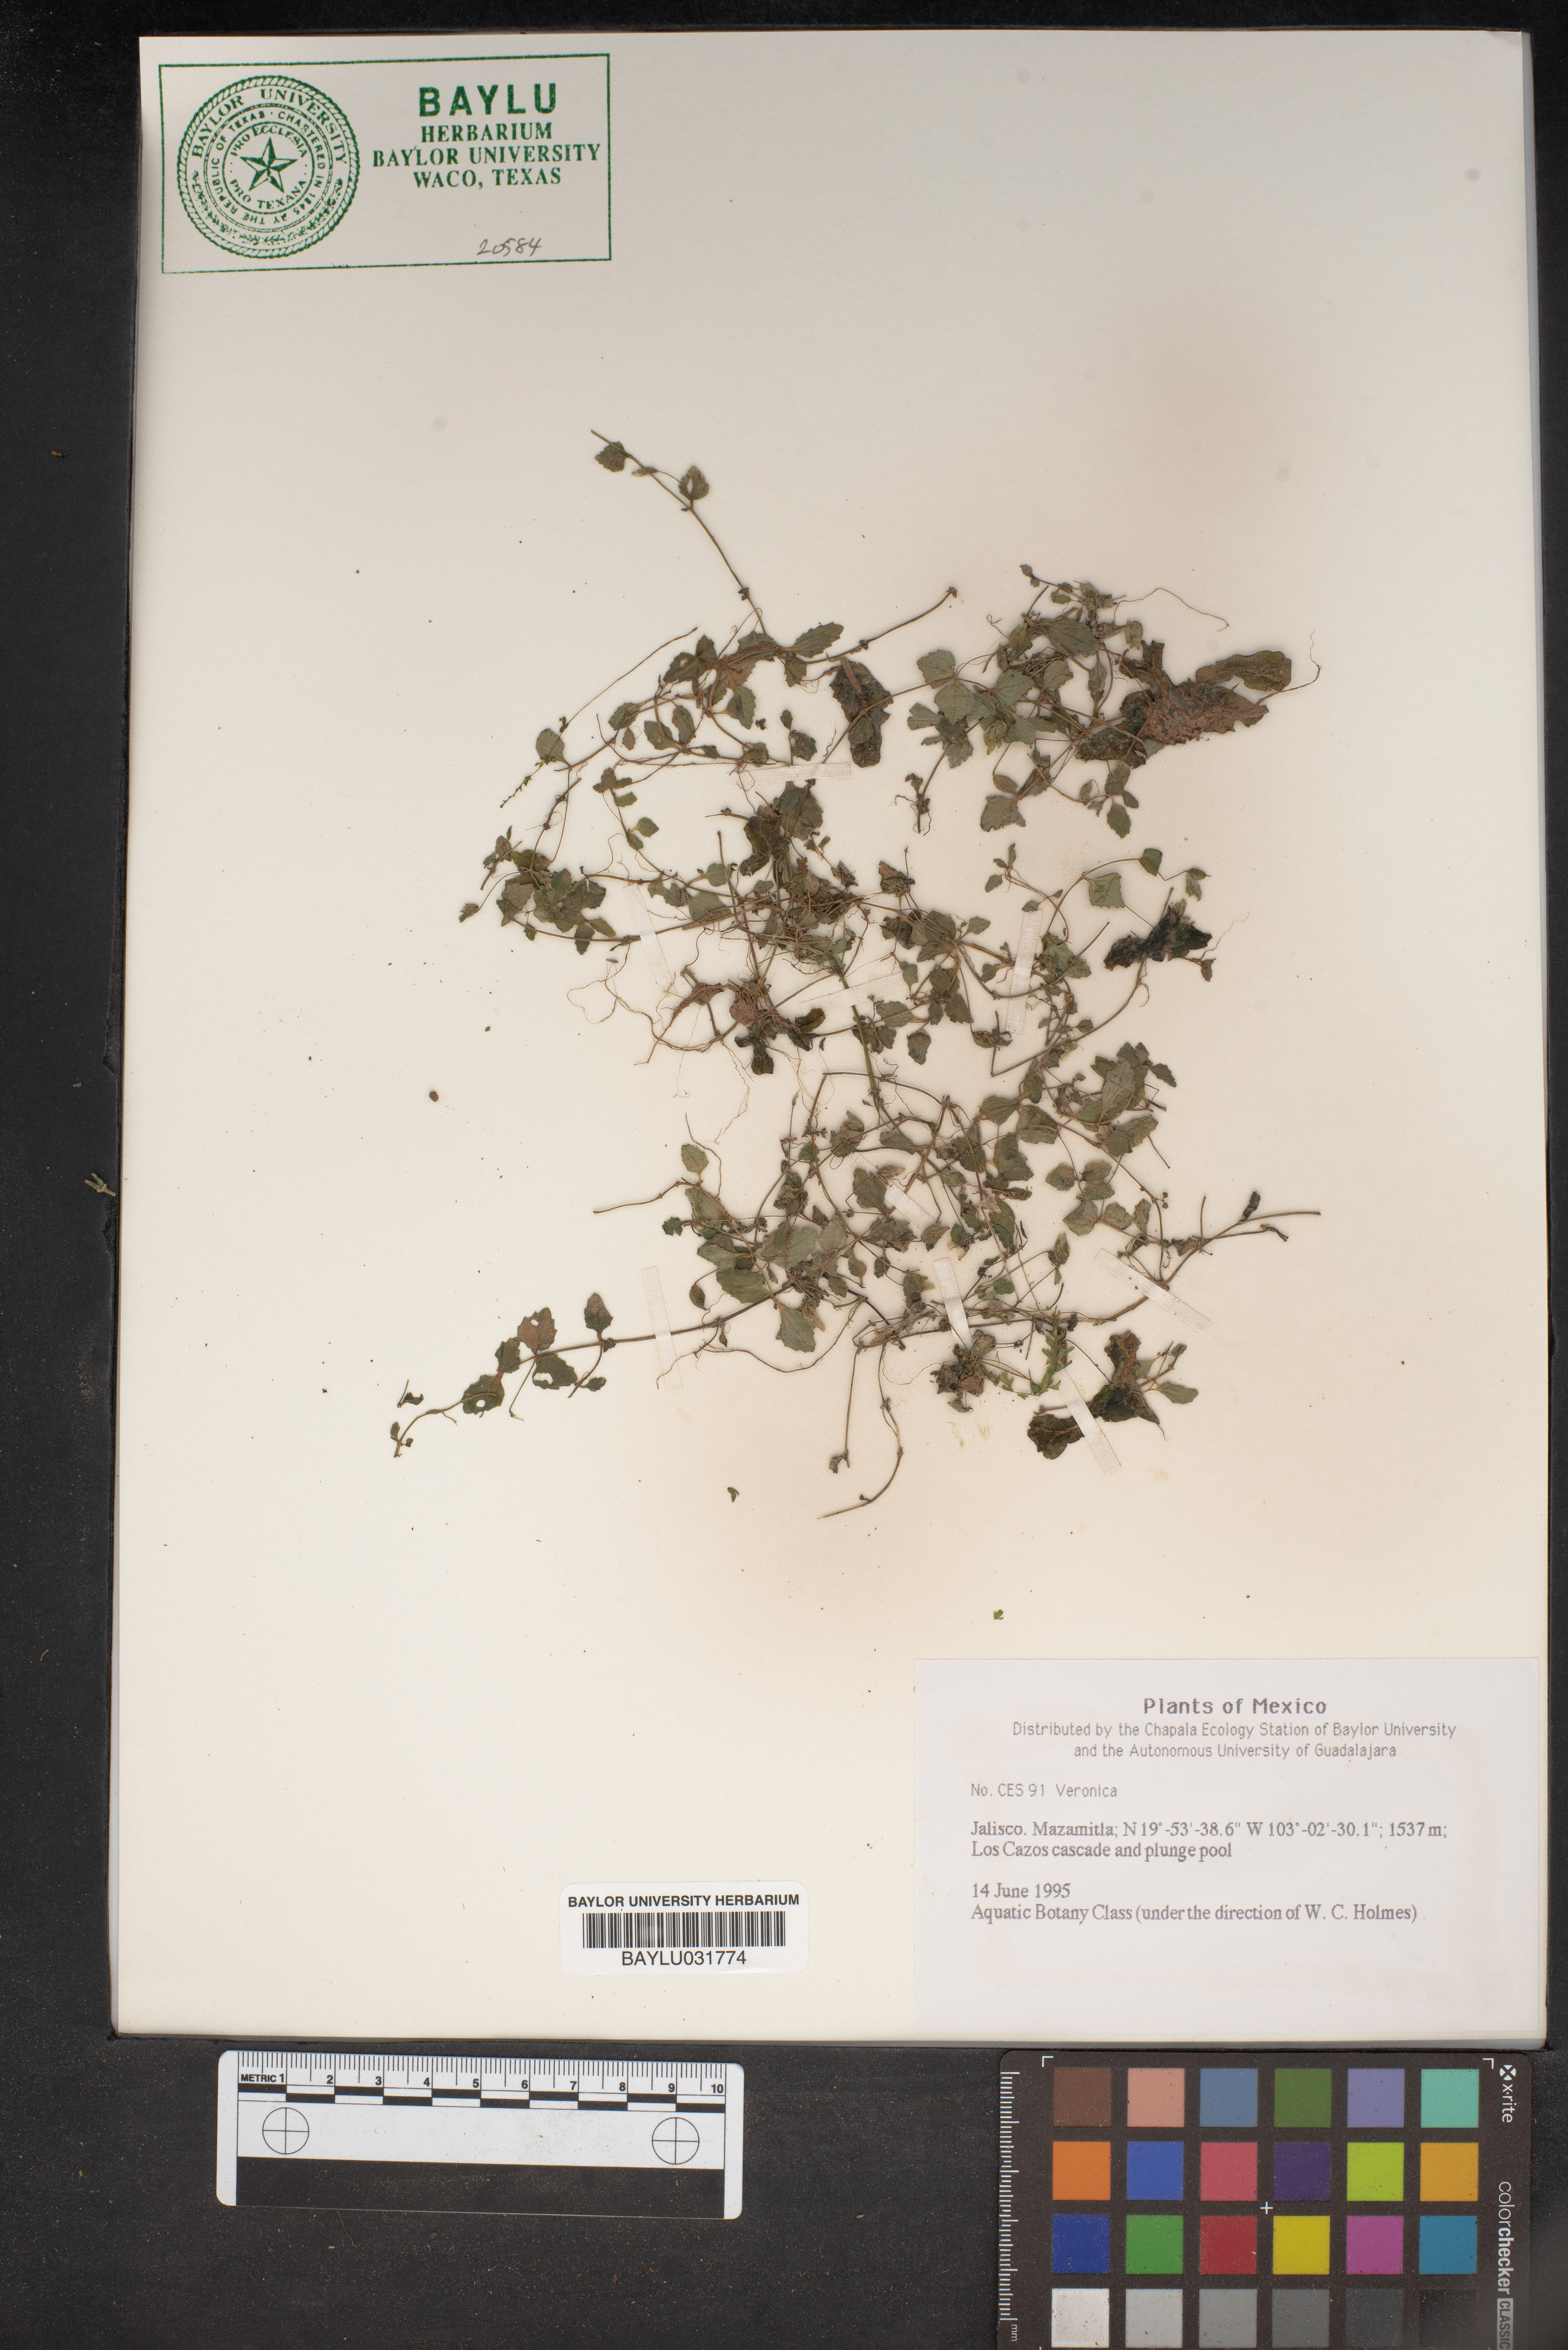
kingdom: Plantae
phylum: Tracheophyta
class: Magnoliopsida
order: Lamiales
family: Plantaginaceae
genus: Veronica
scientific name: Veronica
